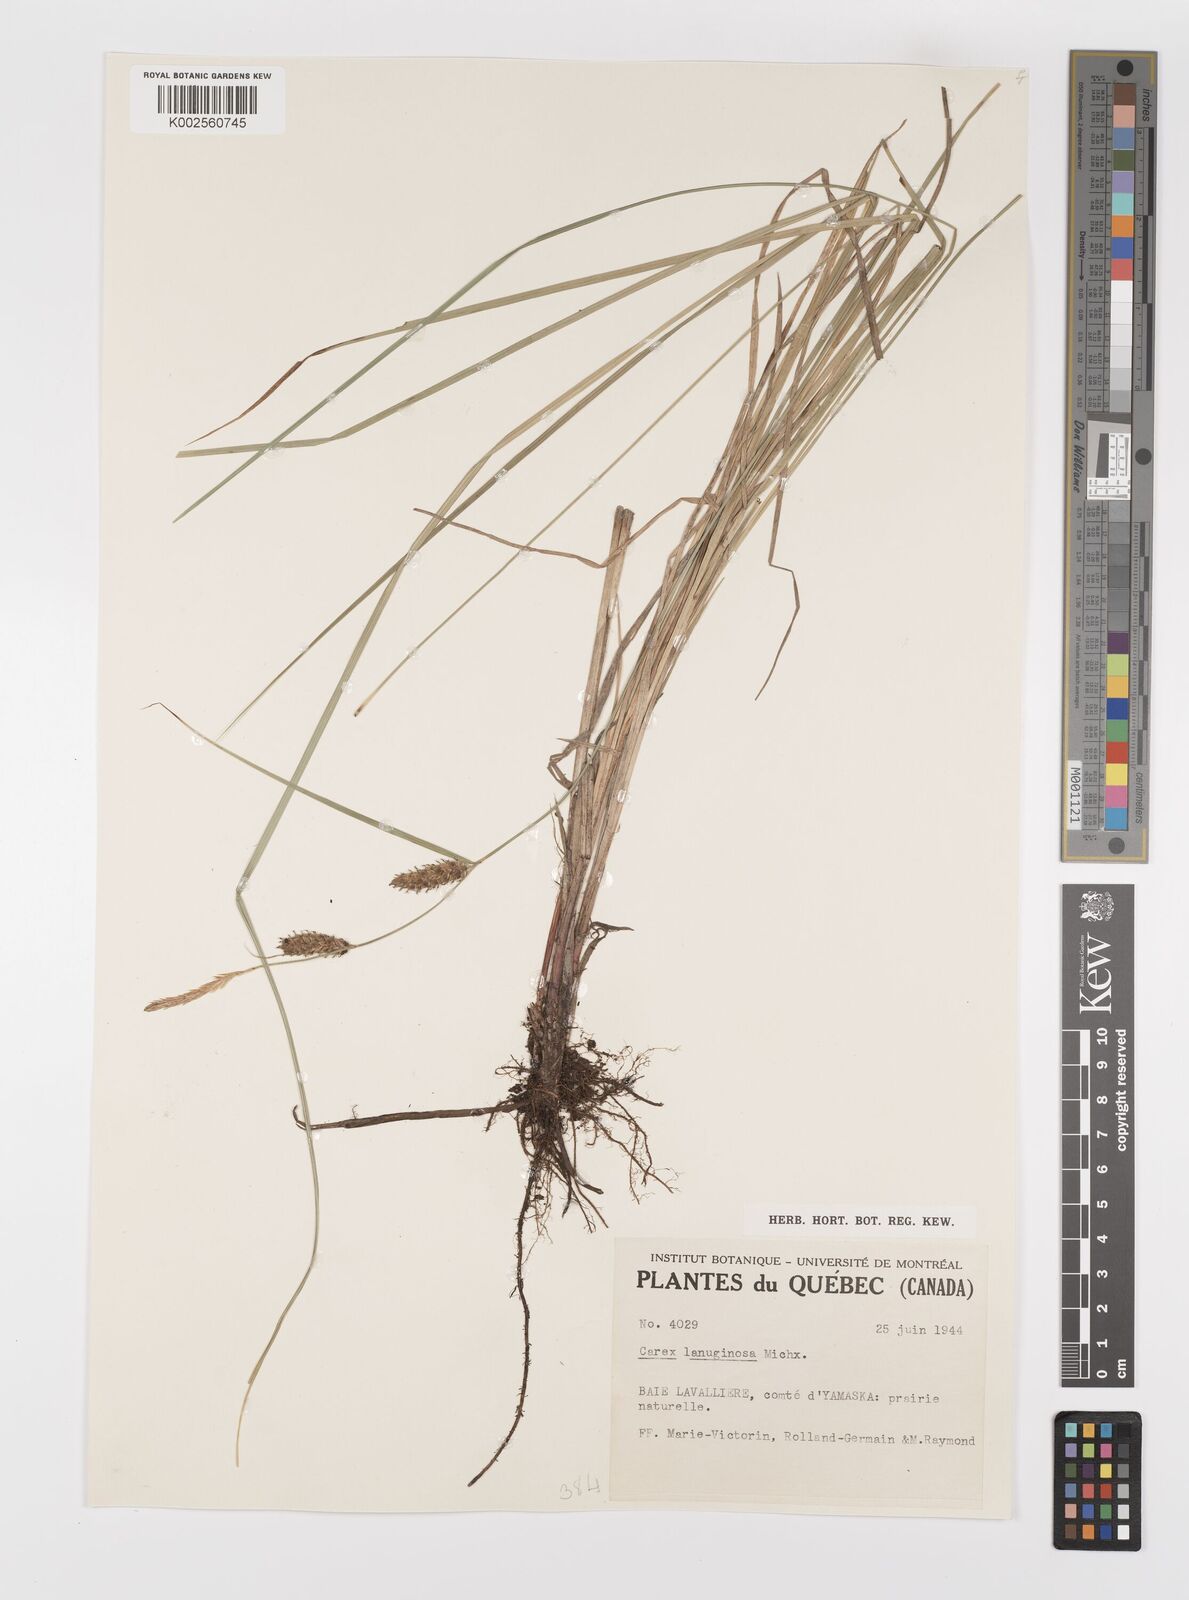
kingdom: Plantae
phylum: Tracheophyta
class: Liliopsida
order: Poales
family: Cyperaceae
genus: Carex
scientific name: Carex lasiocarpa
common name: Slender sedge
